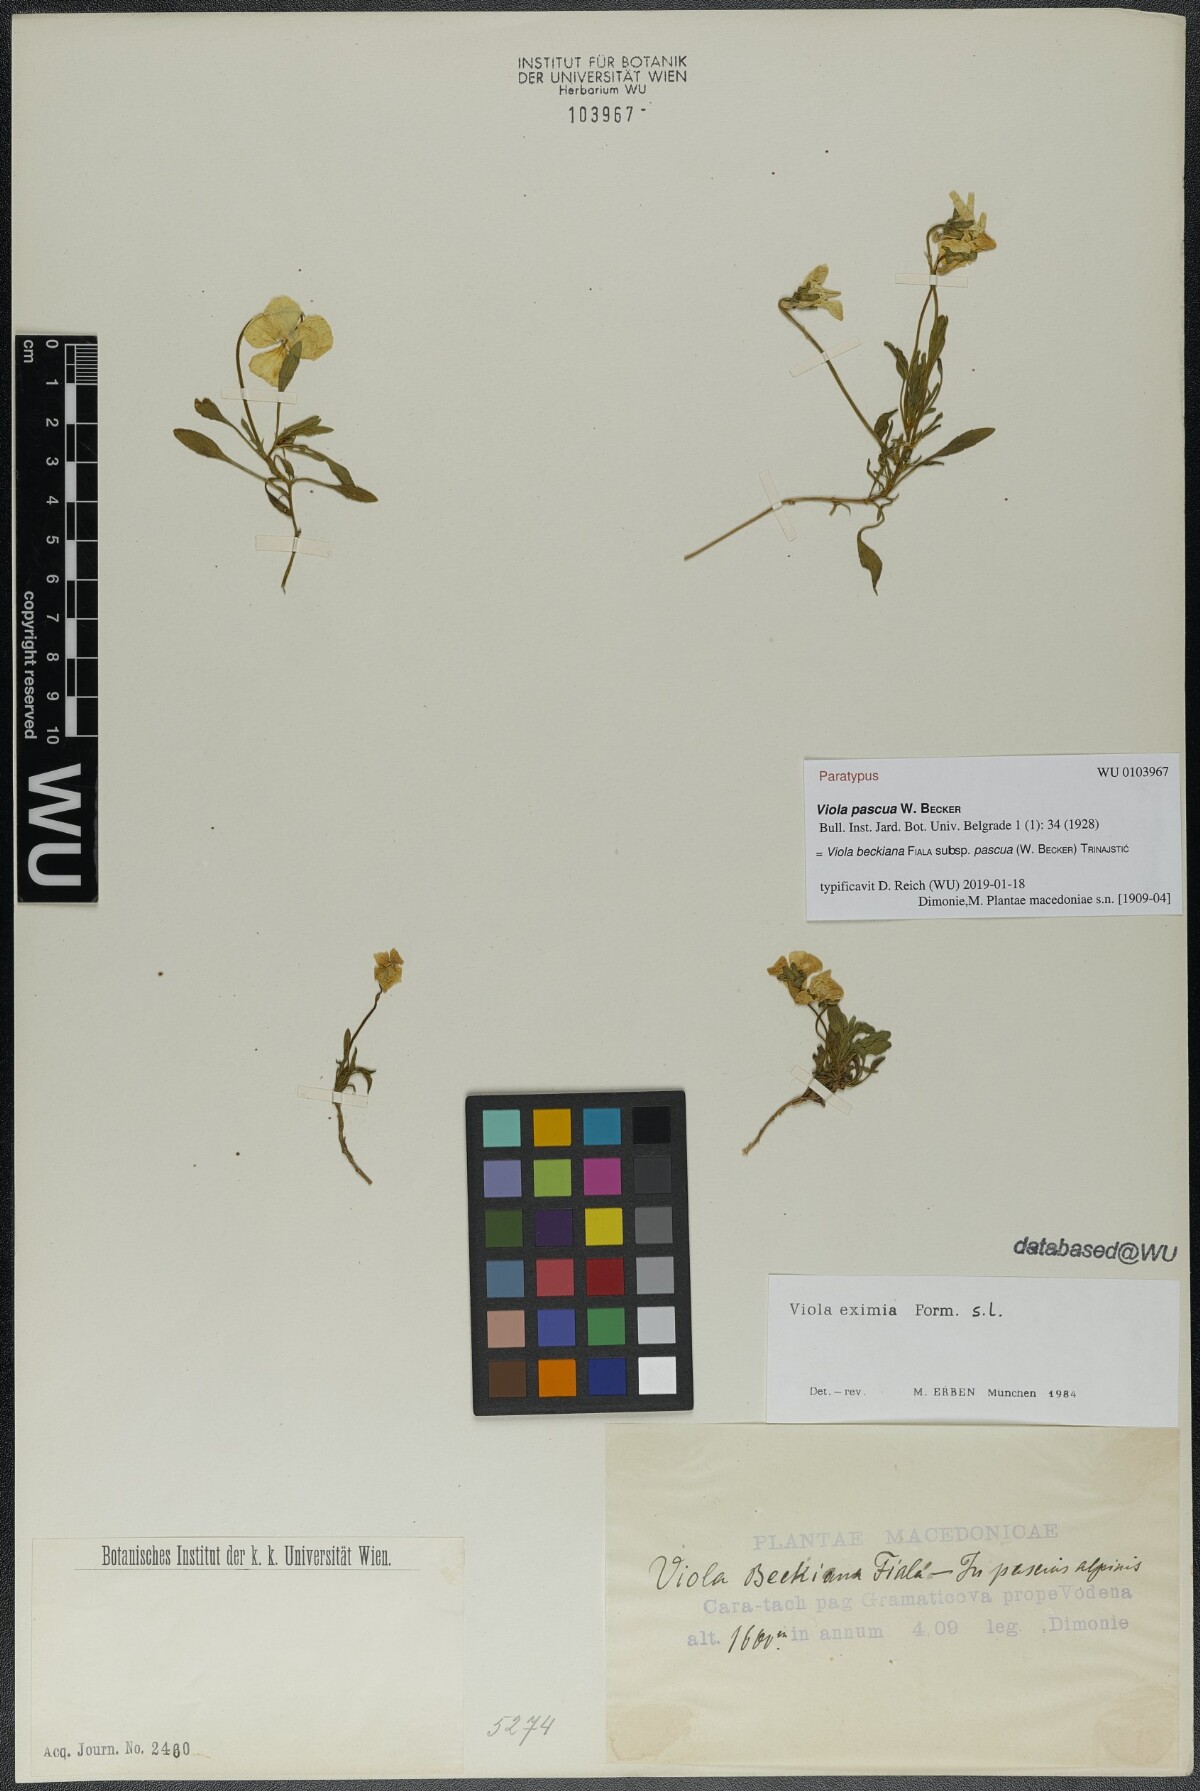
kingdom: Plantae
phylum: Tracheophyta
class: Magnoliopsida
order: Malpighiales
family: Violaceae
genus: Viola
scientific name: Viola eximia
